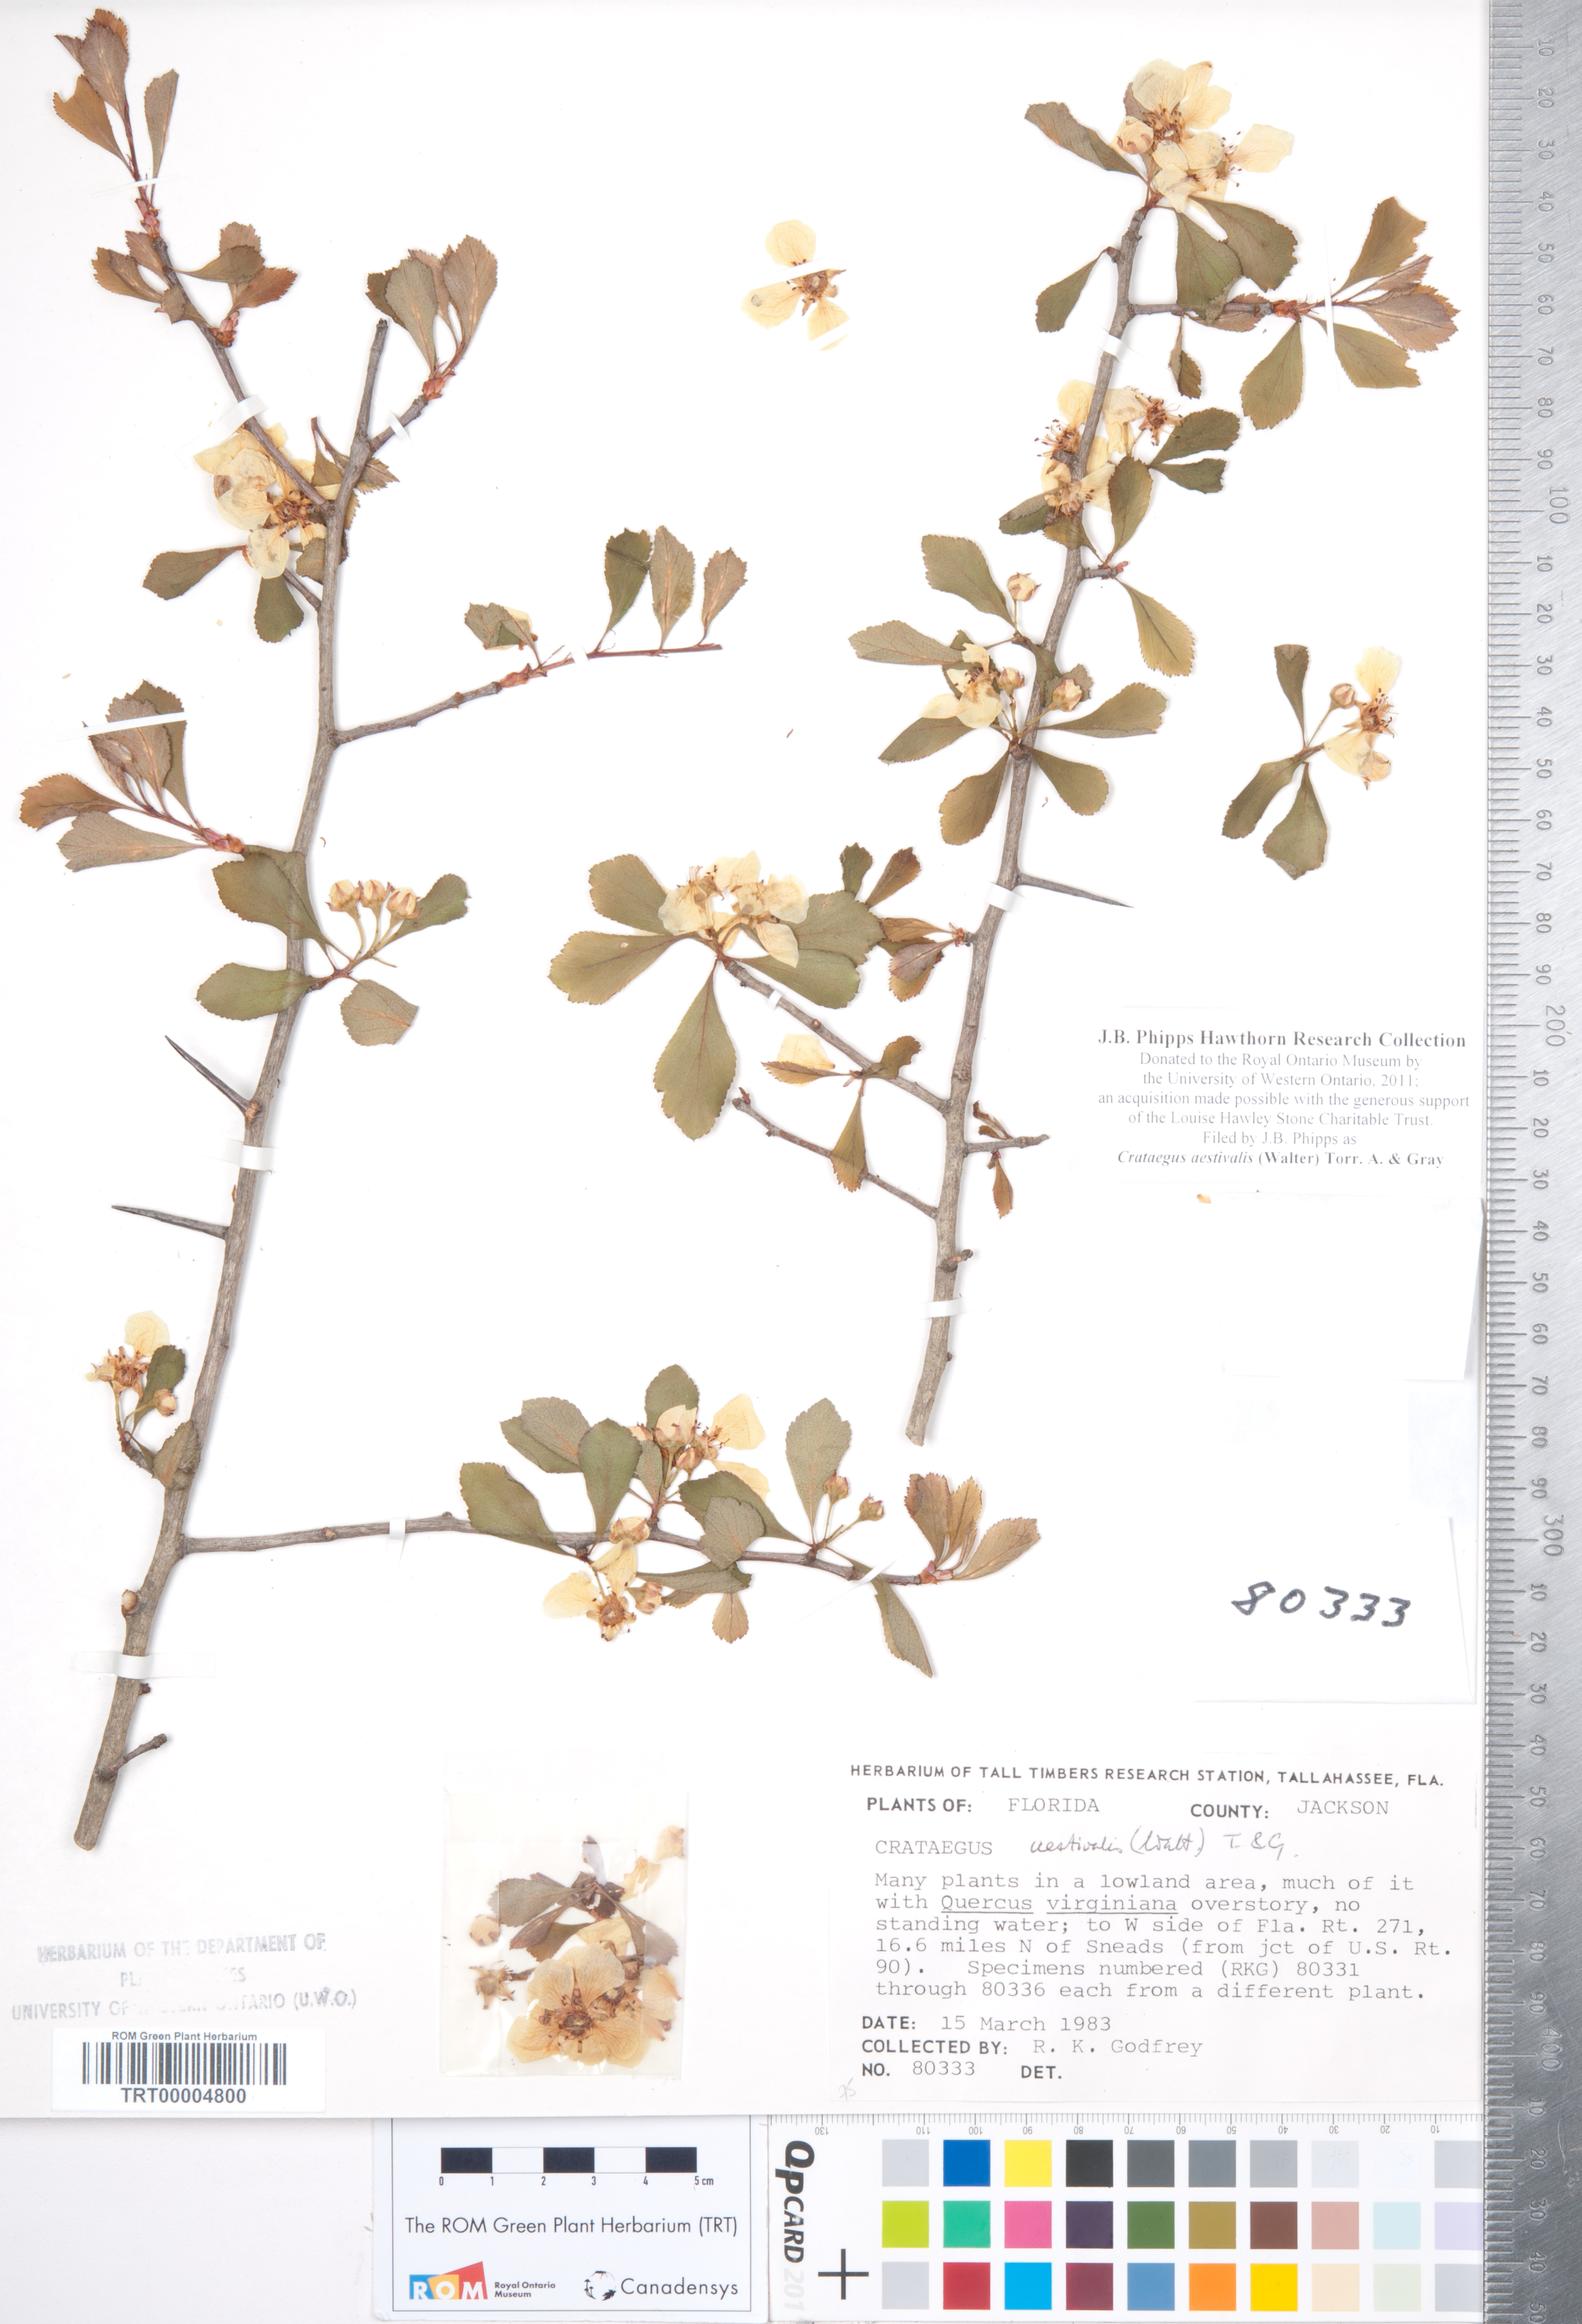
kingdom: Plantae
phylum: Tracheophyta
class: Magnoliopsida
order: Rosales
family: Rosaceae
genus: Crataegus
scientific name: Crataegus aestivalis
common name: Mayhaw
